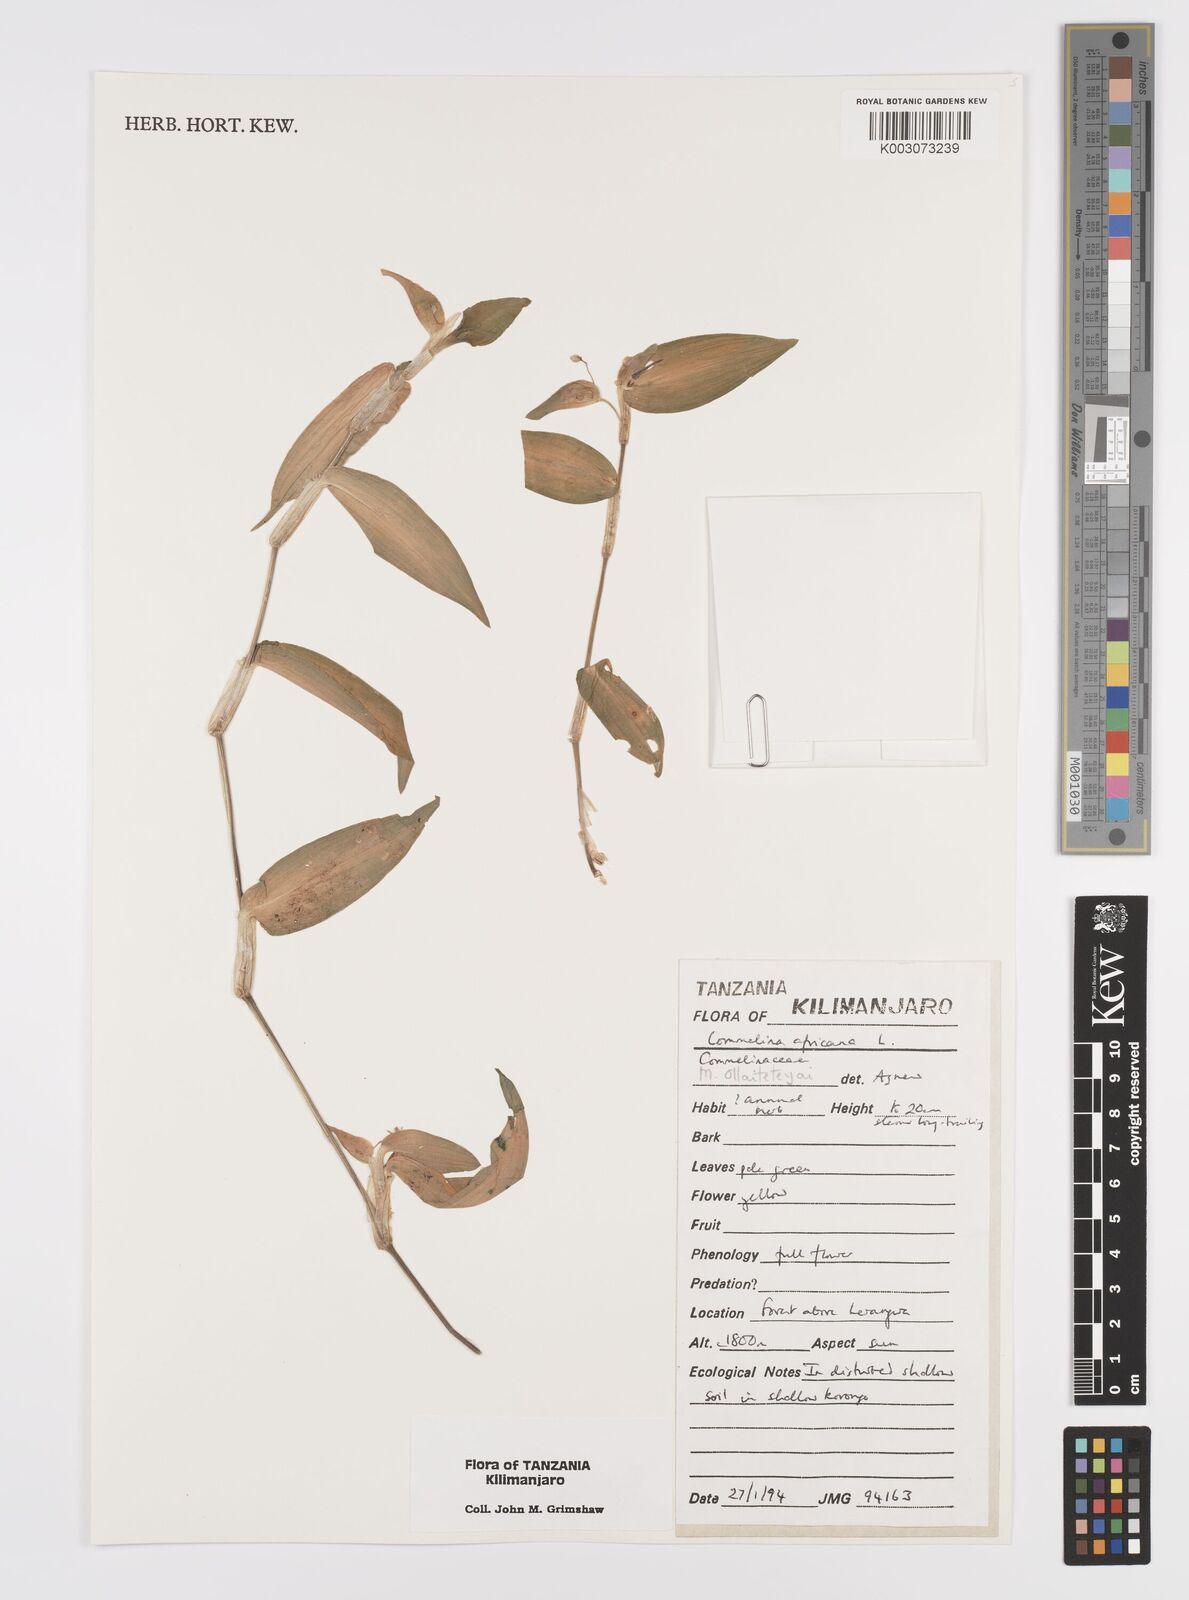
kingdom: Plantae
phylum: Tracheophyta
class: Liliopsida
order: Commelinales
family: Commelinaceae
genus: Commelina
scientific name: Commelina africana
